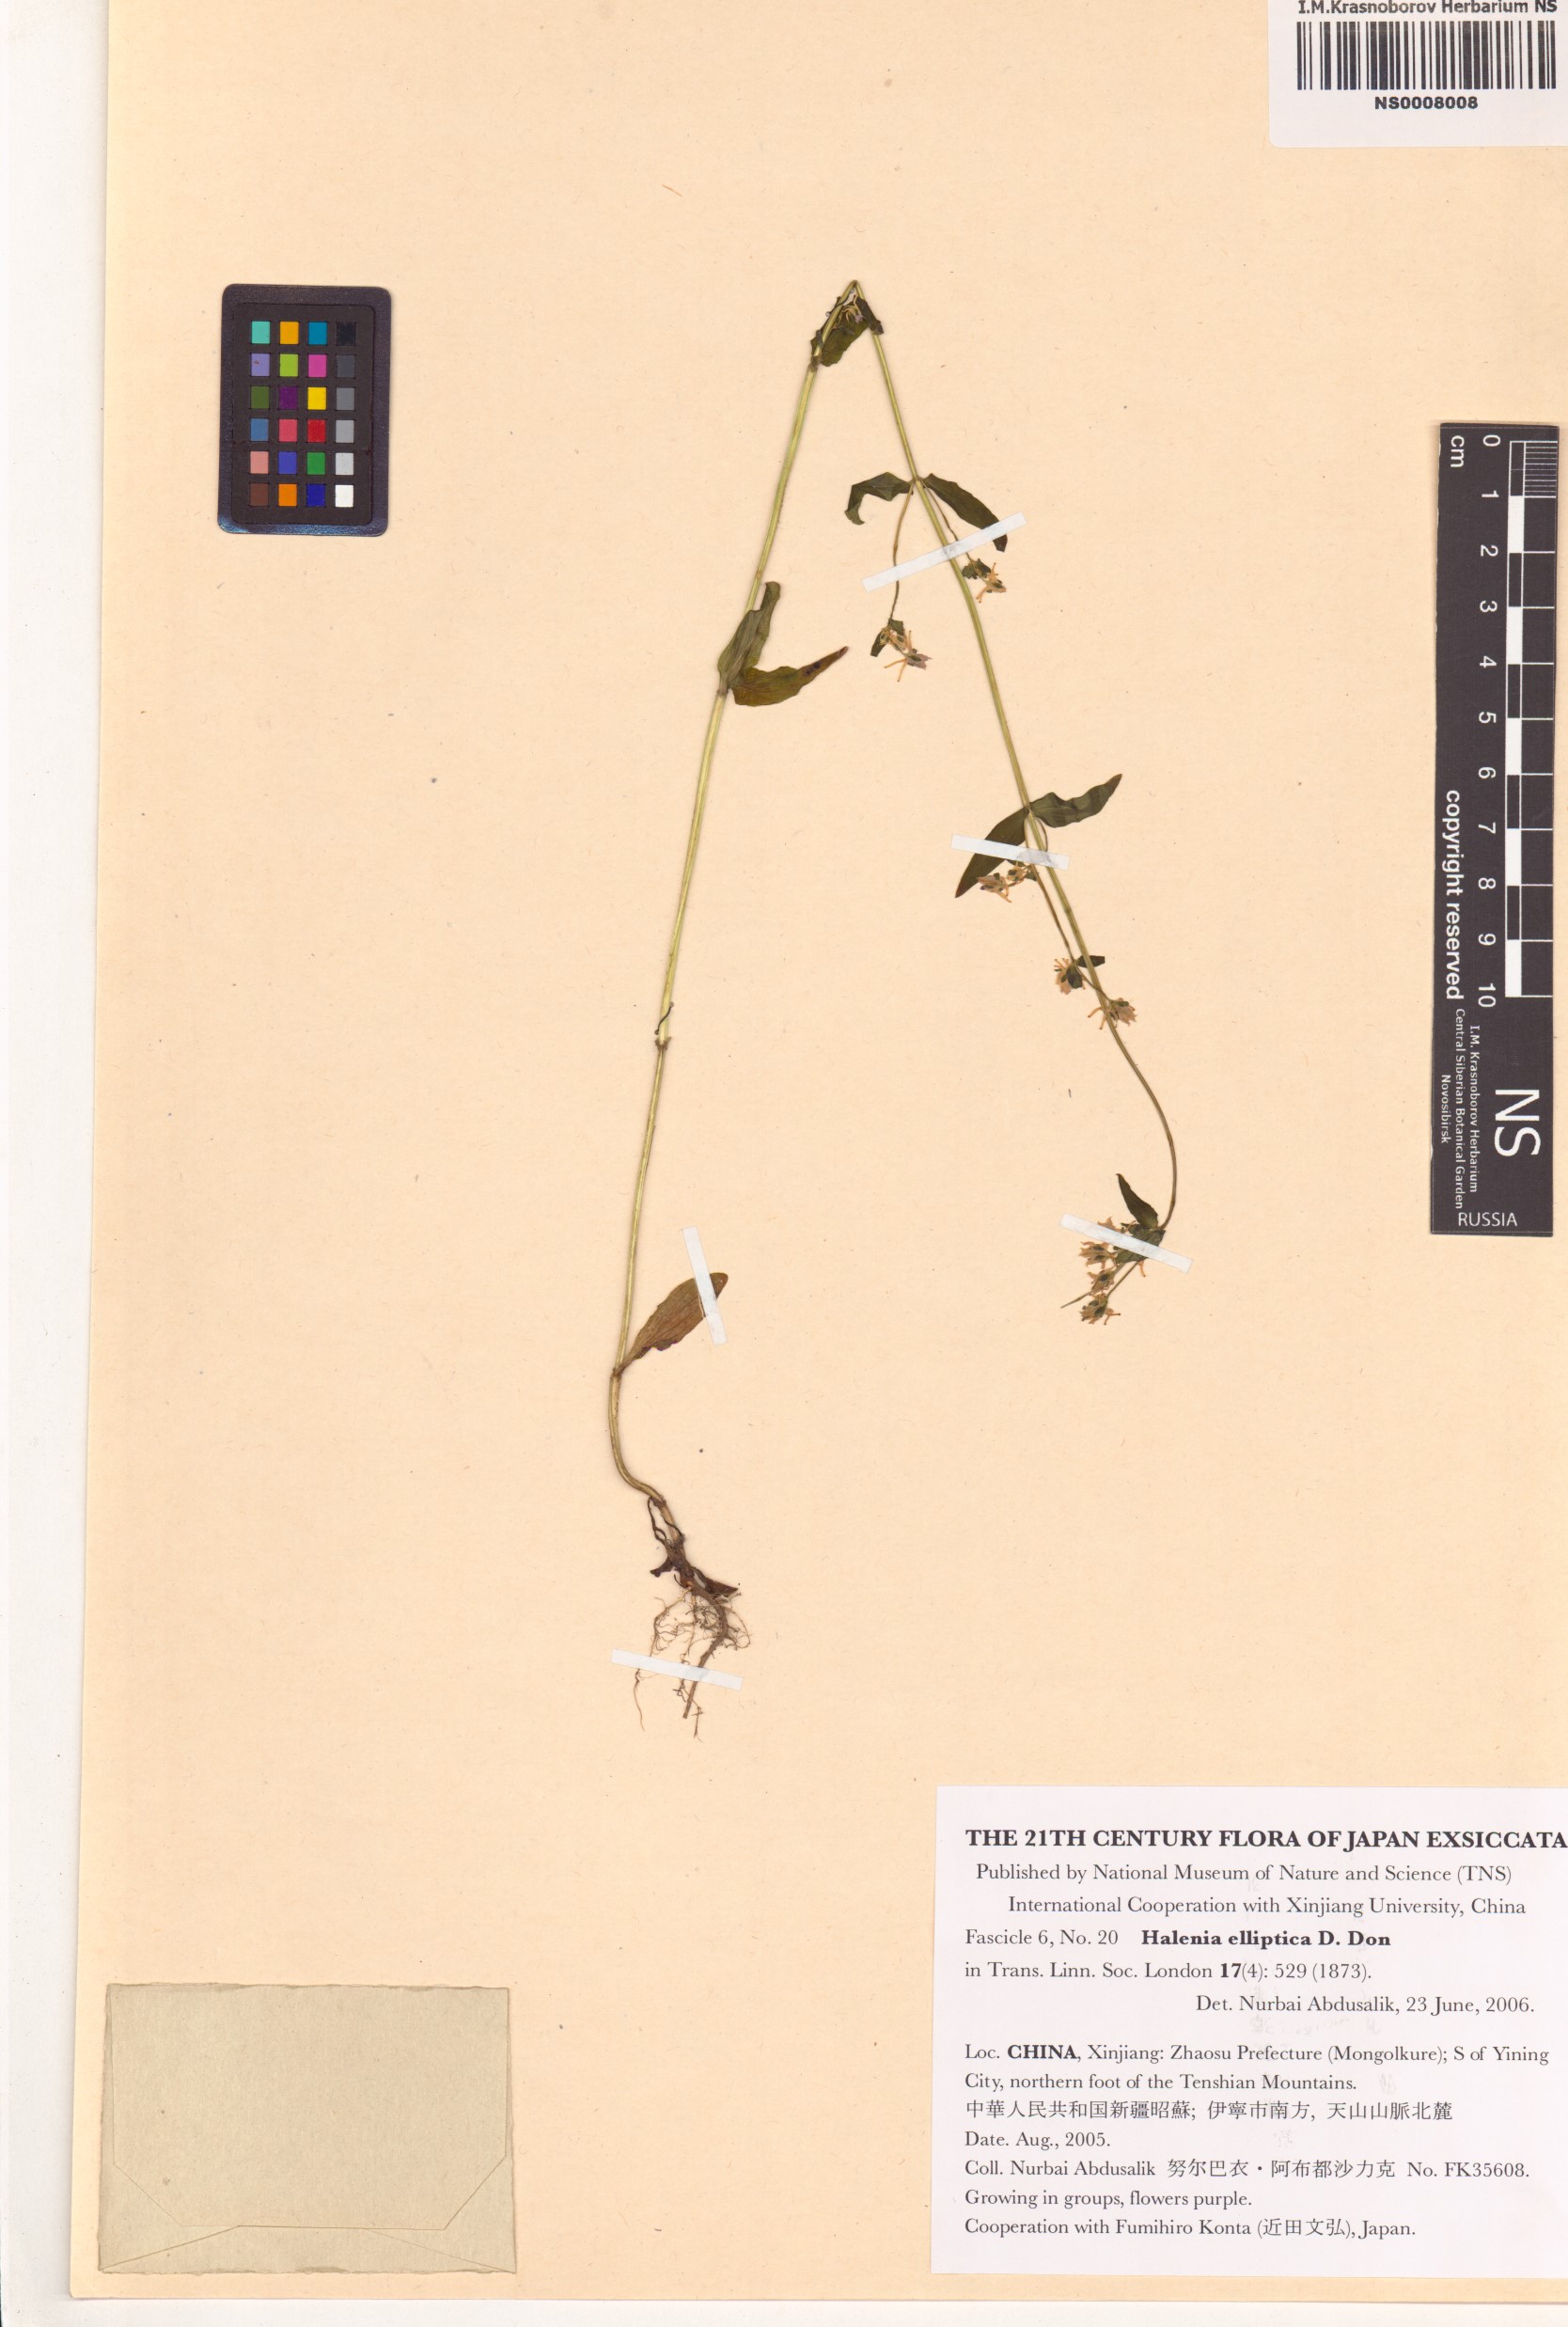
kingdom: Plantae
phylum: Tracheophyta
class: Magnoliopsida
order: Gentianales
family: Gentianaceae
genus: Halenia
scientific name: Halenia elliptica
